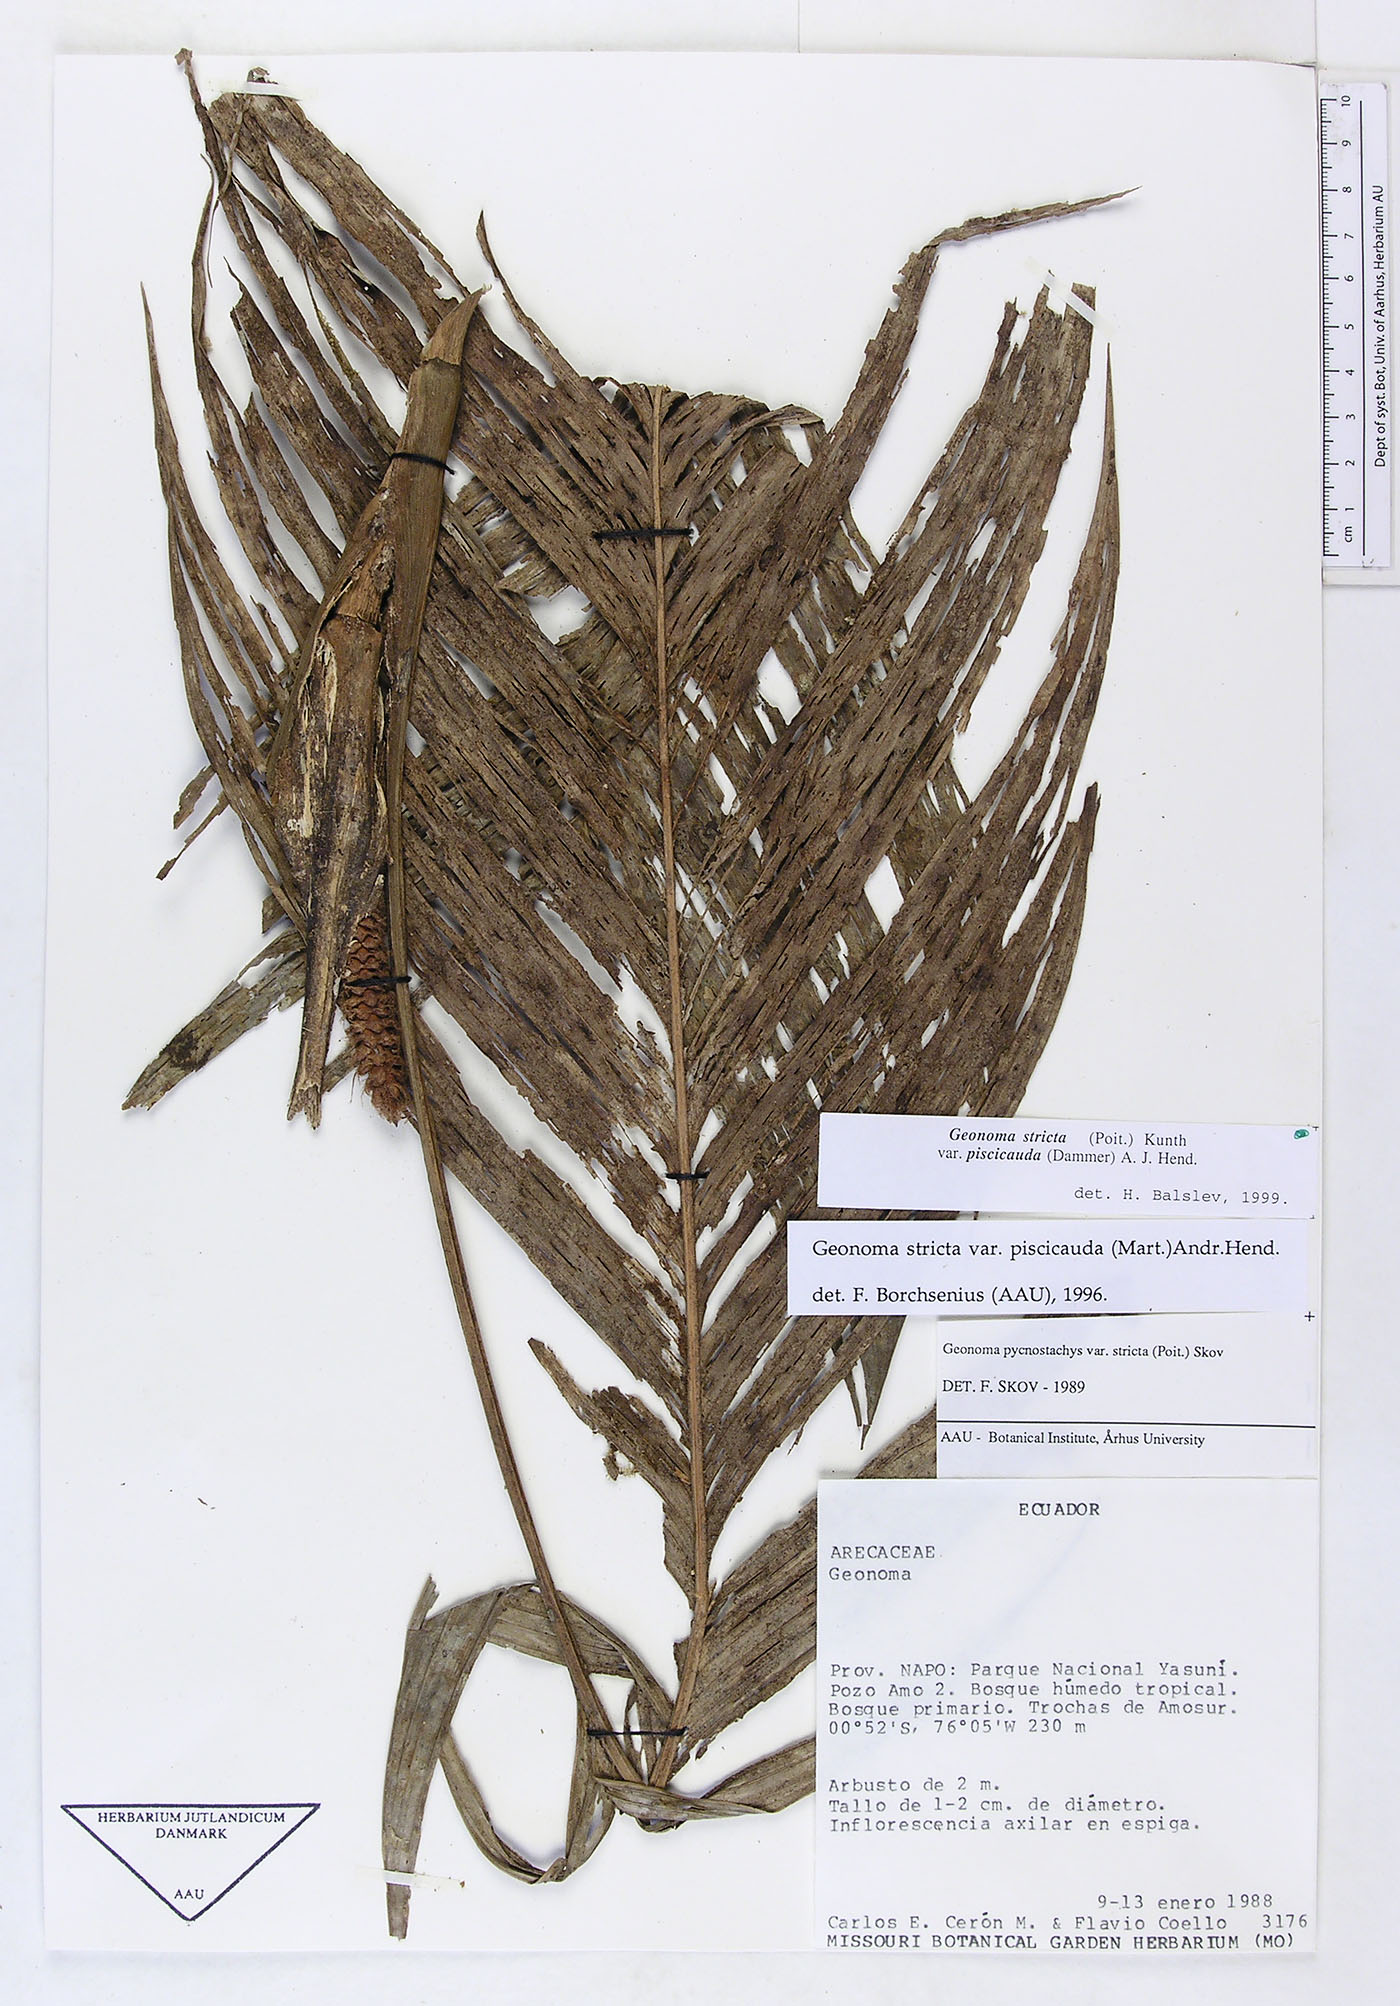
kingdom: Plantae
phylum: Tracheophyta
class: Liliopsida
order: Arecales
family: Arecaceae
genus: Geonoma
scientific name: Geonoma stricta
